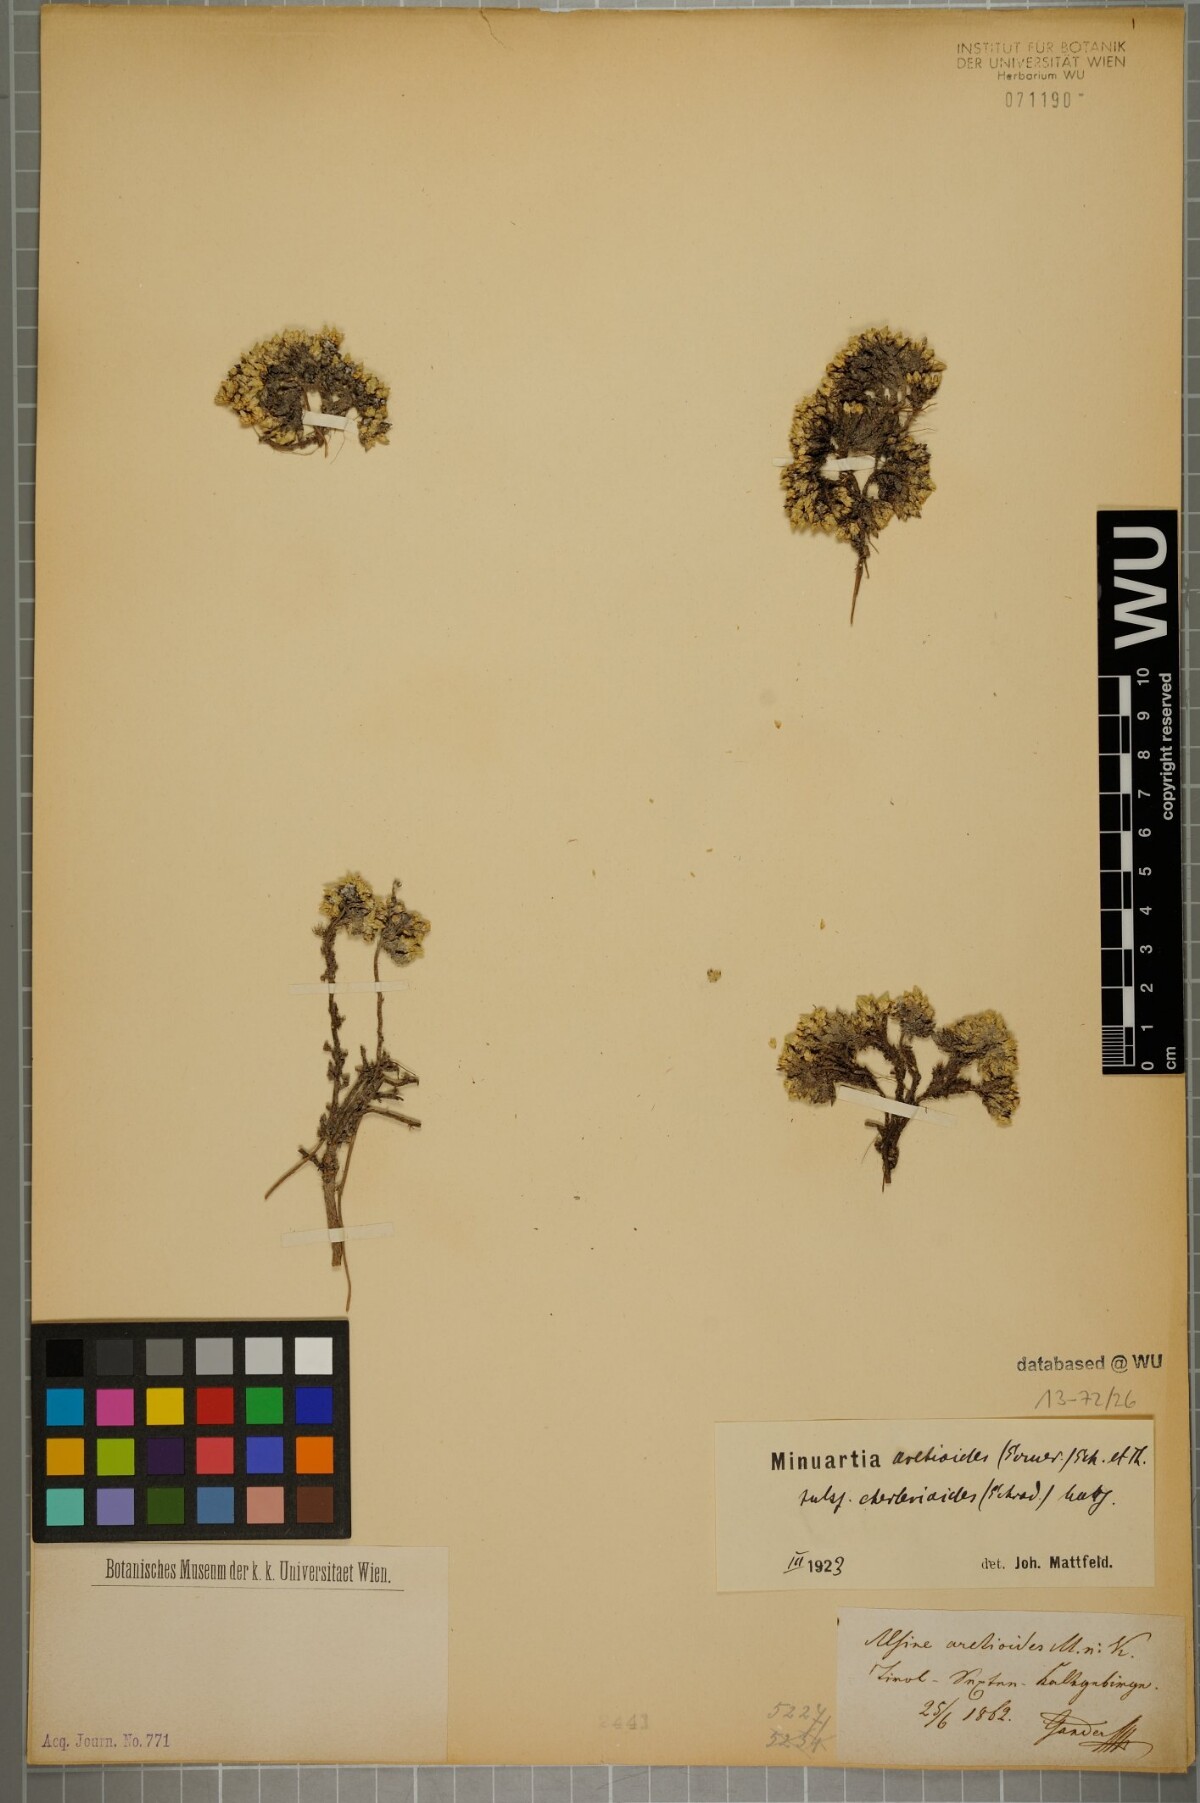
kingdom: Plantae
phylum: Tracheophyta
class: Magnoliopsida
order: Caryophyllales
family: Caryophyllaceae
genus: Facchinia
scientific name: Facchinia cherlerioides
